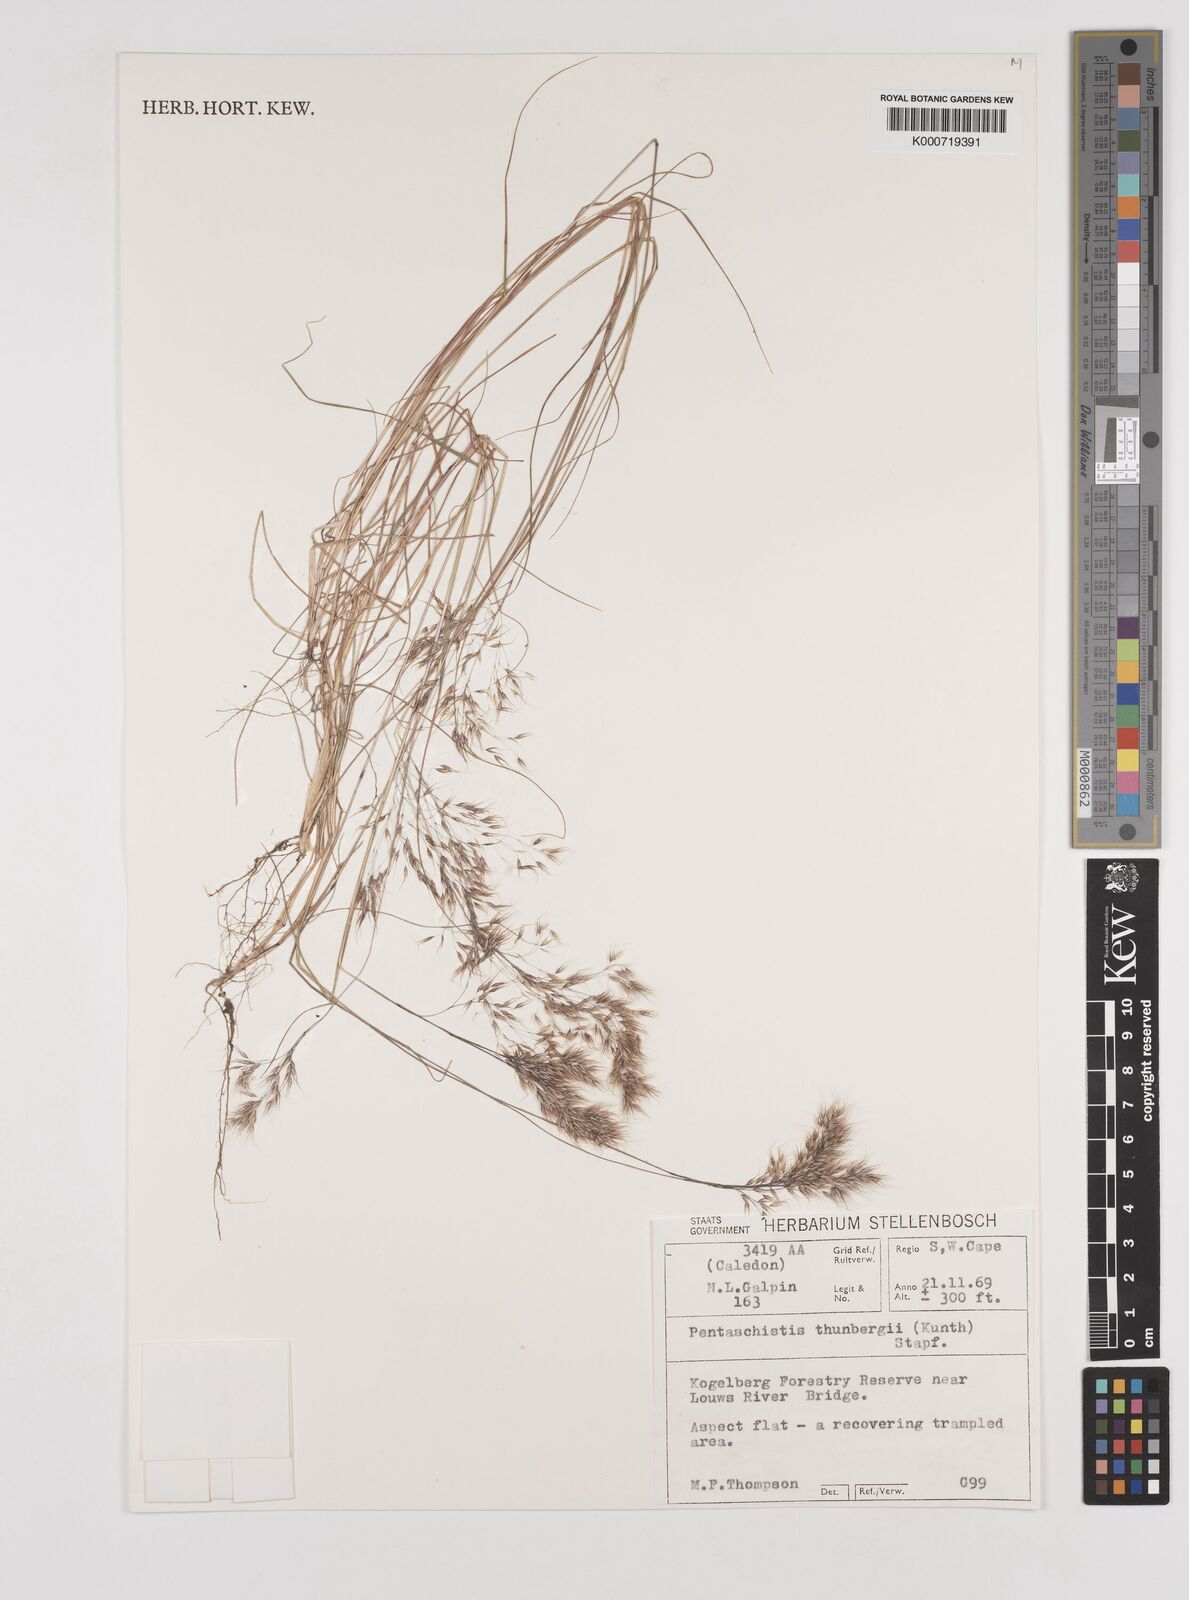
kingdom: Plantae
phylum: Tracheophyta
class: Liliopsida
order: Poales
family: Poaceae
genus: Pentameris
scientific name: Pentameris triseta
